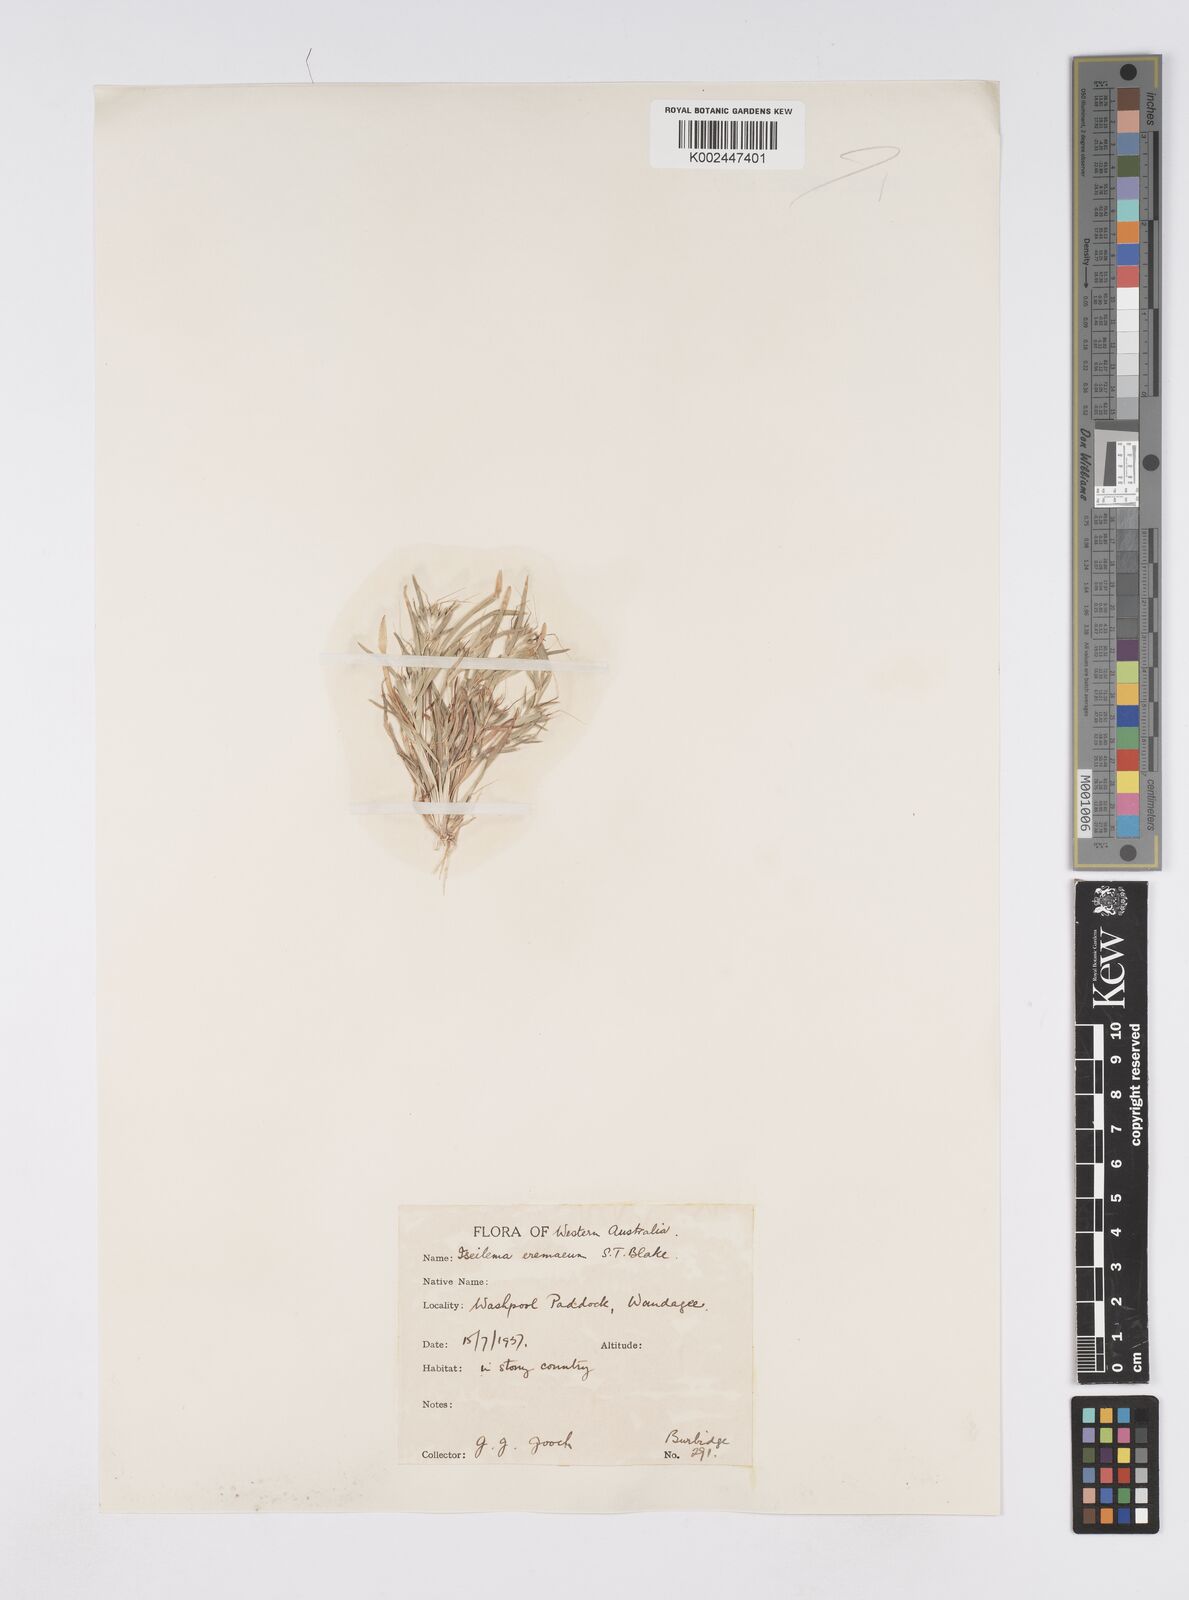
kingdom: Plantae
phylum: Tracheophyta
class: Liliopsida
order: Poales
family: Poaceae
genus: Iseilema
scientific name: Iseilema eremaeum
